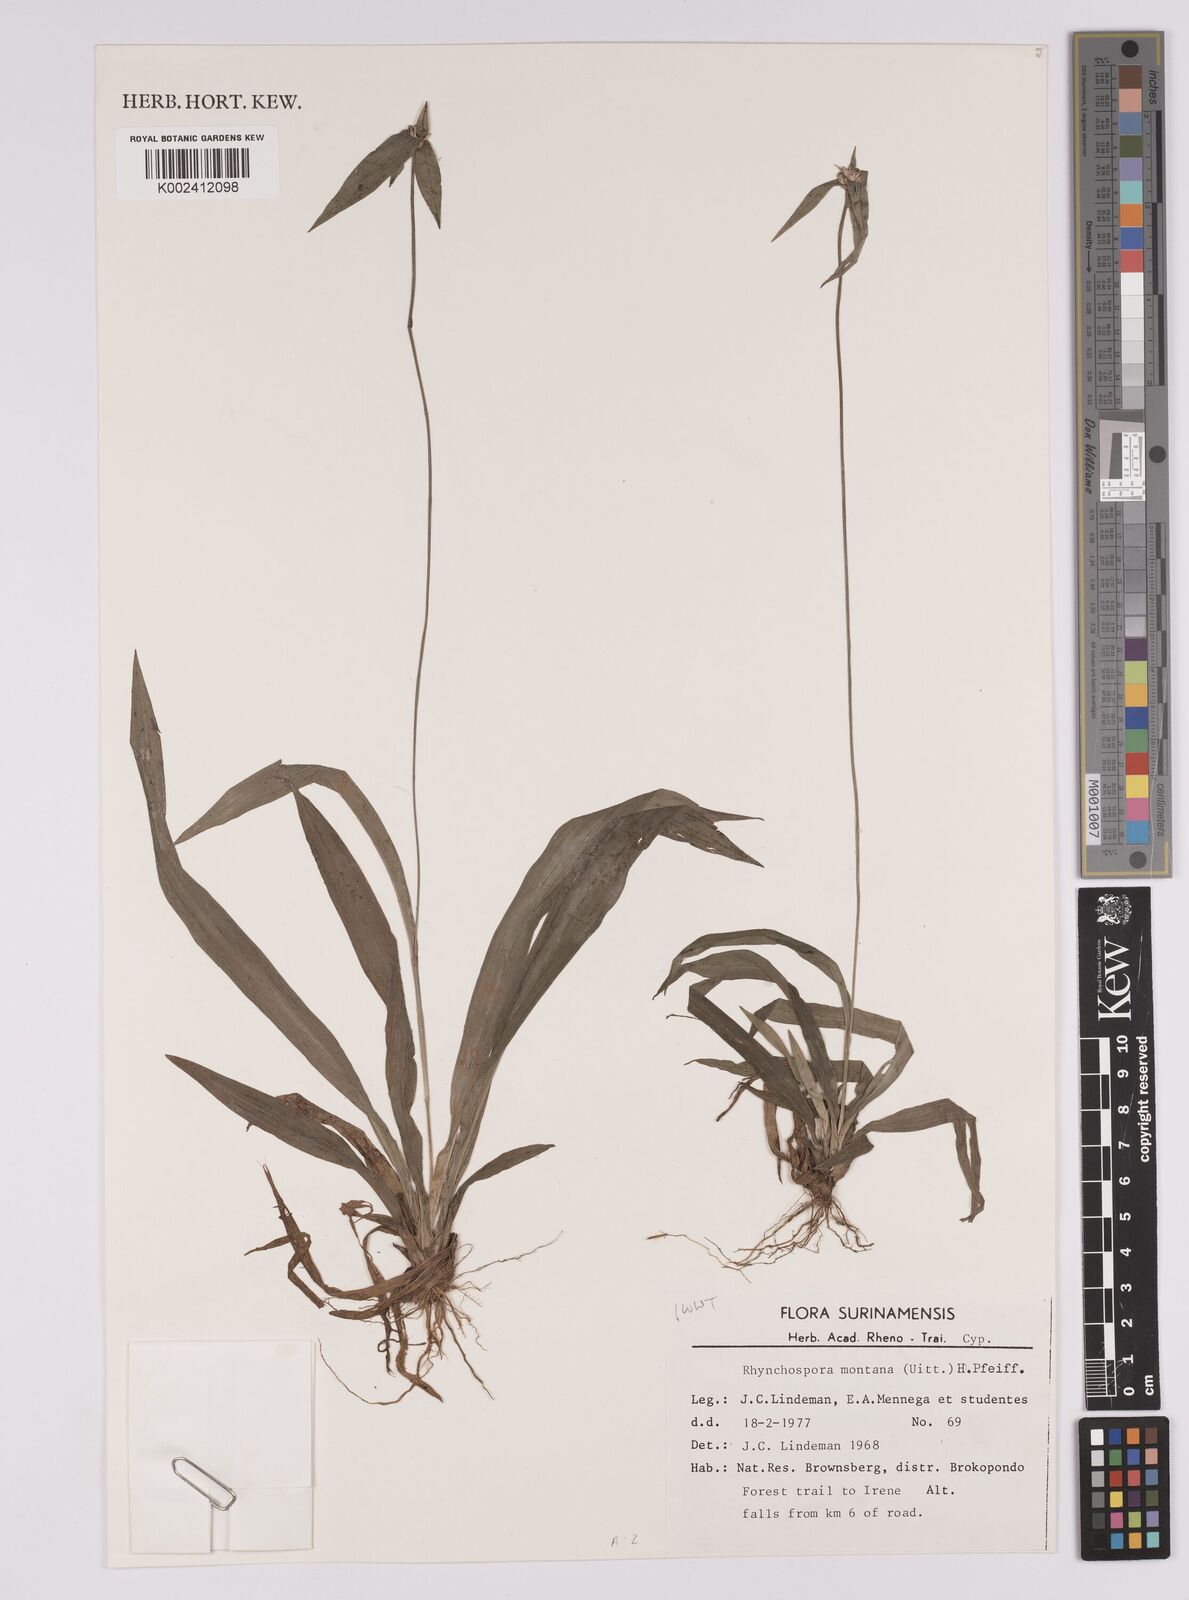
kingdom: Plantae
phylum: Tracheophyta
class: Liliopsida
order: Poales
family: Cyperaceae
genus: Rhynchospora
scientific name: Rhynchospora montana
